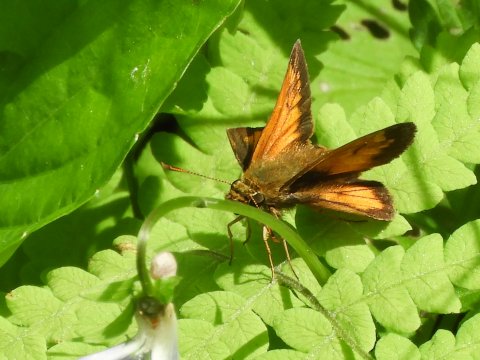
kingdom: Animalia
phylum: Arthropoda
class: Insecta
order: Lepidoptera
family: Hesperiidae
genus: Lon
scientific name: Lon hobomok
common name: Hobomok Skipper
